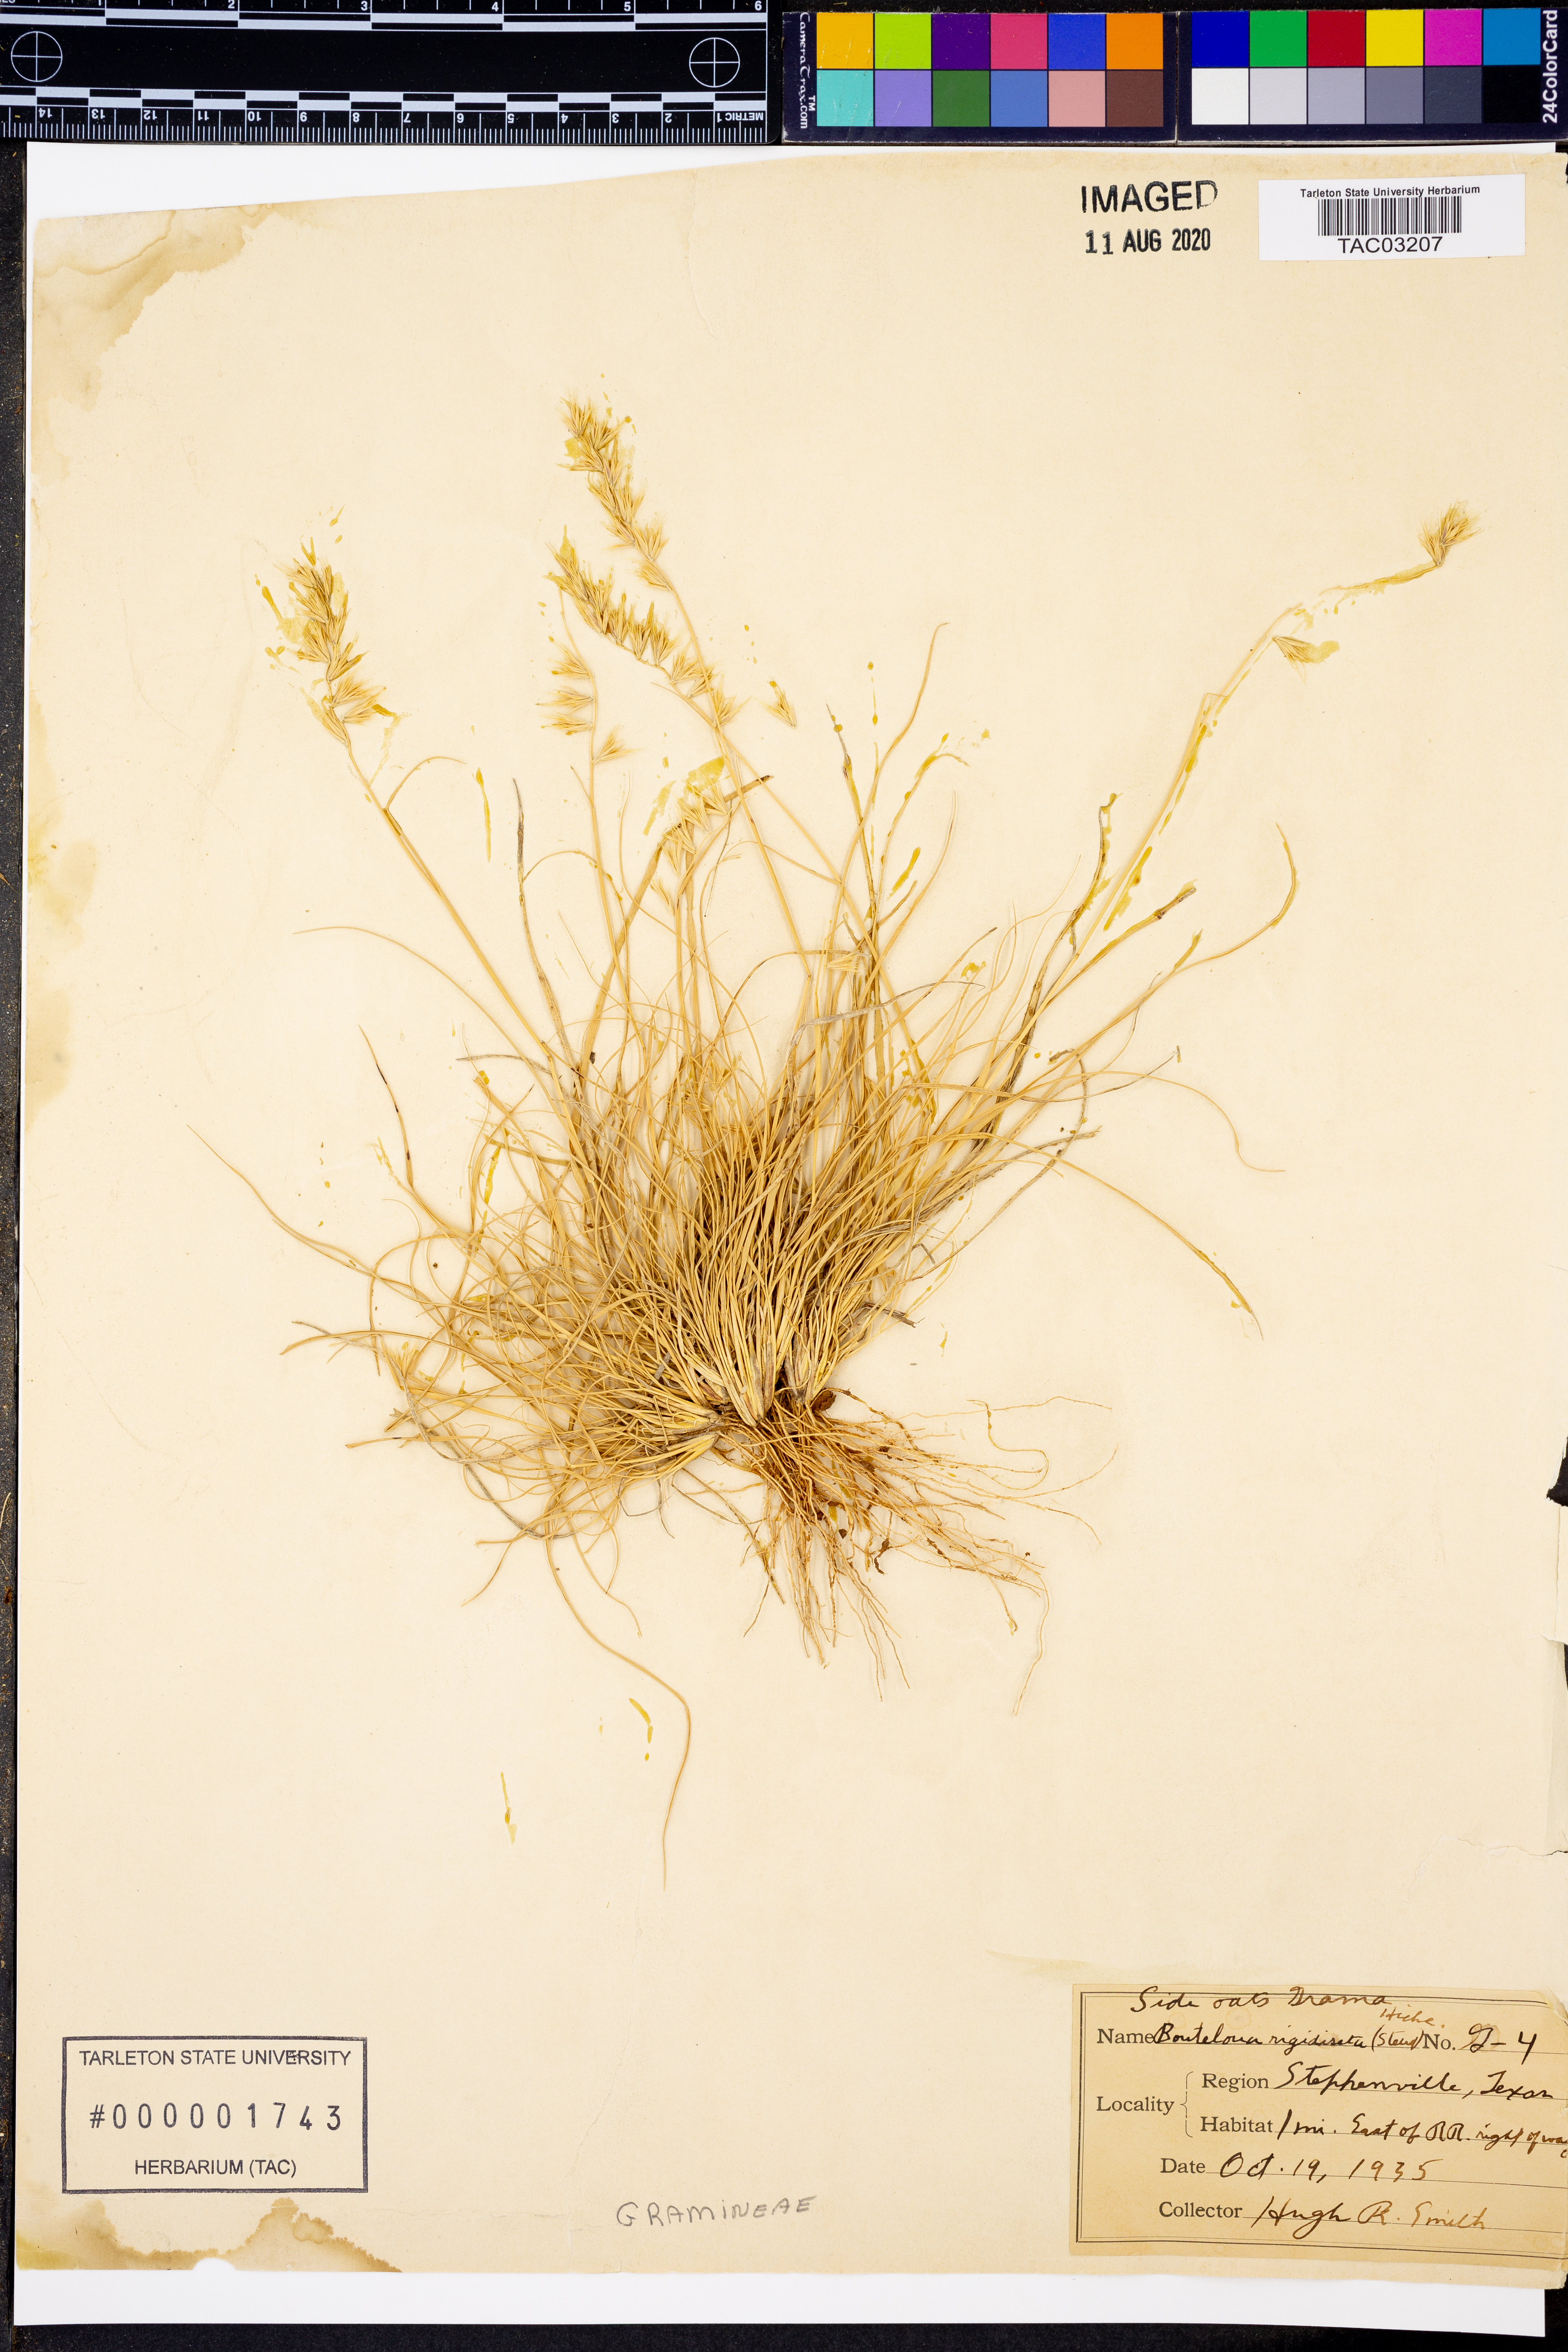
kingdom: Plantae
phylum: Tracheophyta
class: Liliopsida
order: Poales
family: Poaceae
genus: Bouteloua
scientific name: Bouteloua rigidiseta
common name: Texas grama
